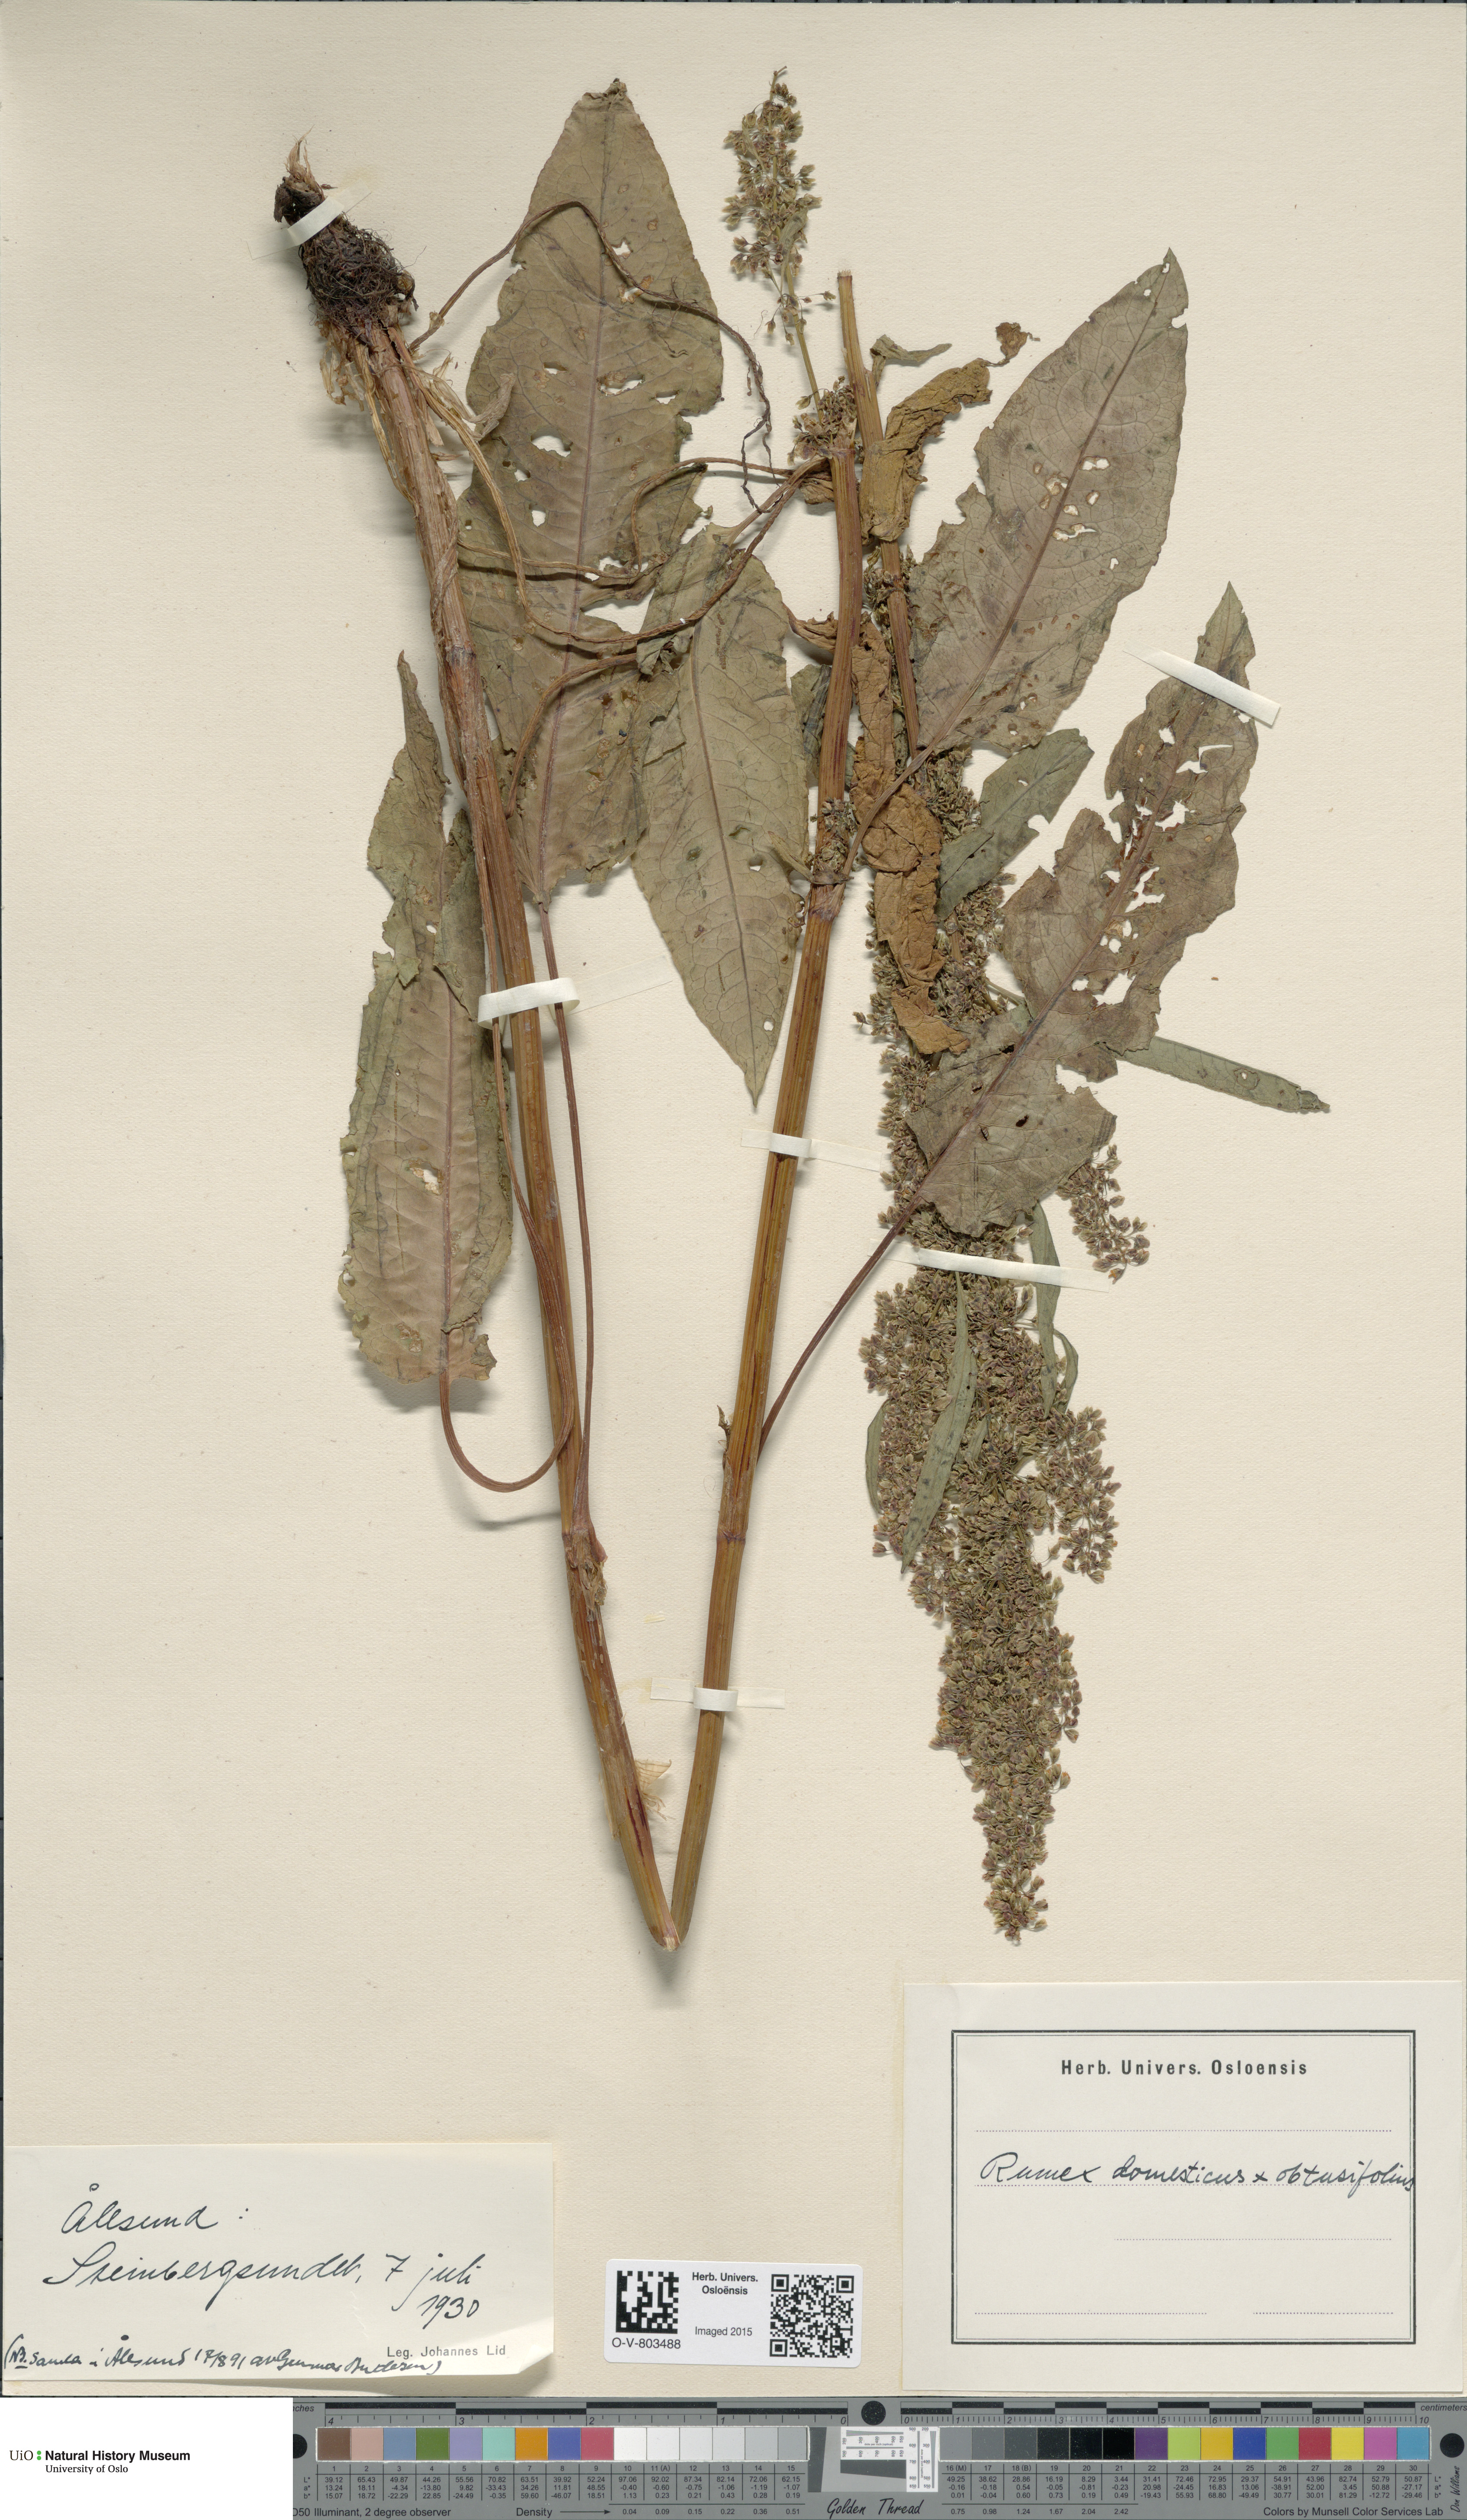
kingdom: Plantae
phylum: Tracheophyta
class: Magnoliopsida
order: Caryophyllales
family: Polygonaceae
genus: Rumex
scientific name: Rumex
